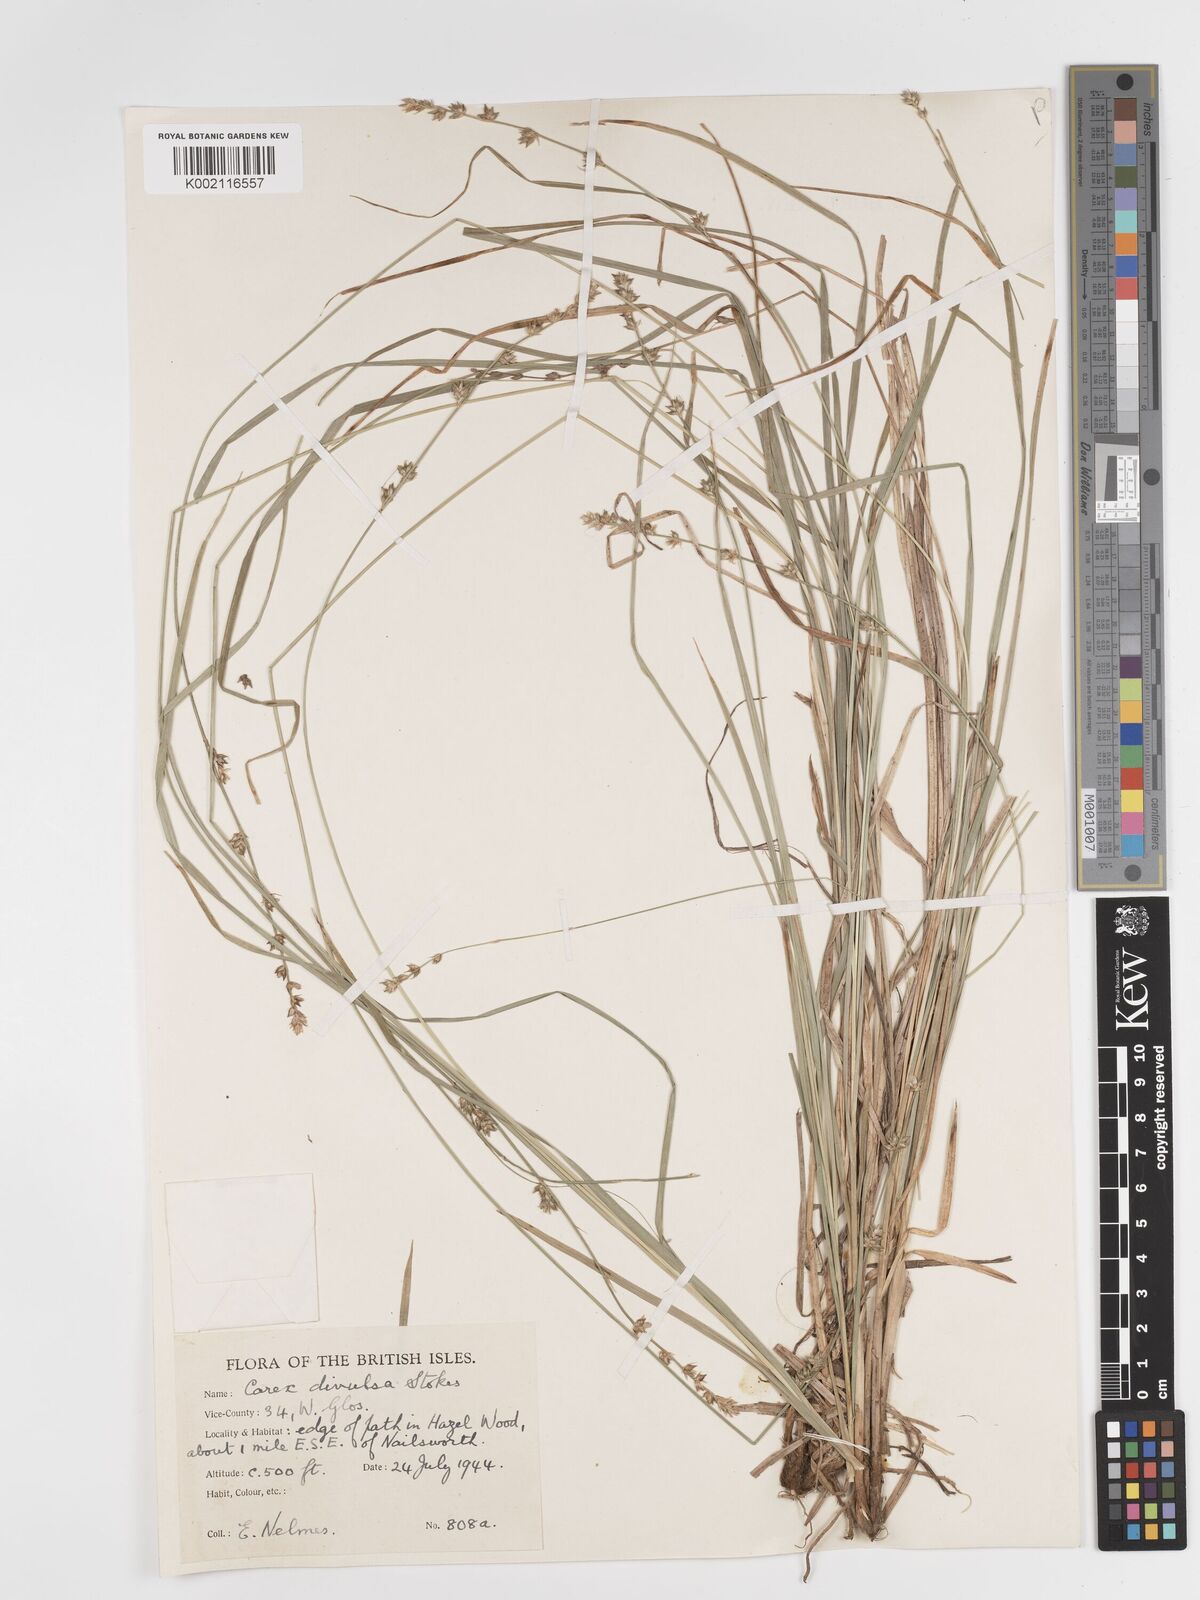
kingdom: Plantae
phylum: Tracheophyta
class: Liliopsida
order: Poales
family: Cyperaceae
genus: Carex
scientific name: Carex divulsa
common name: Grassland sedge
